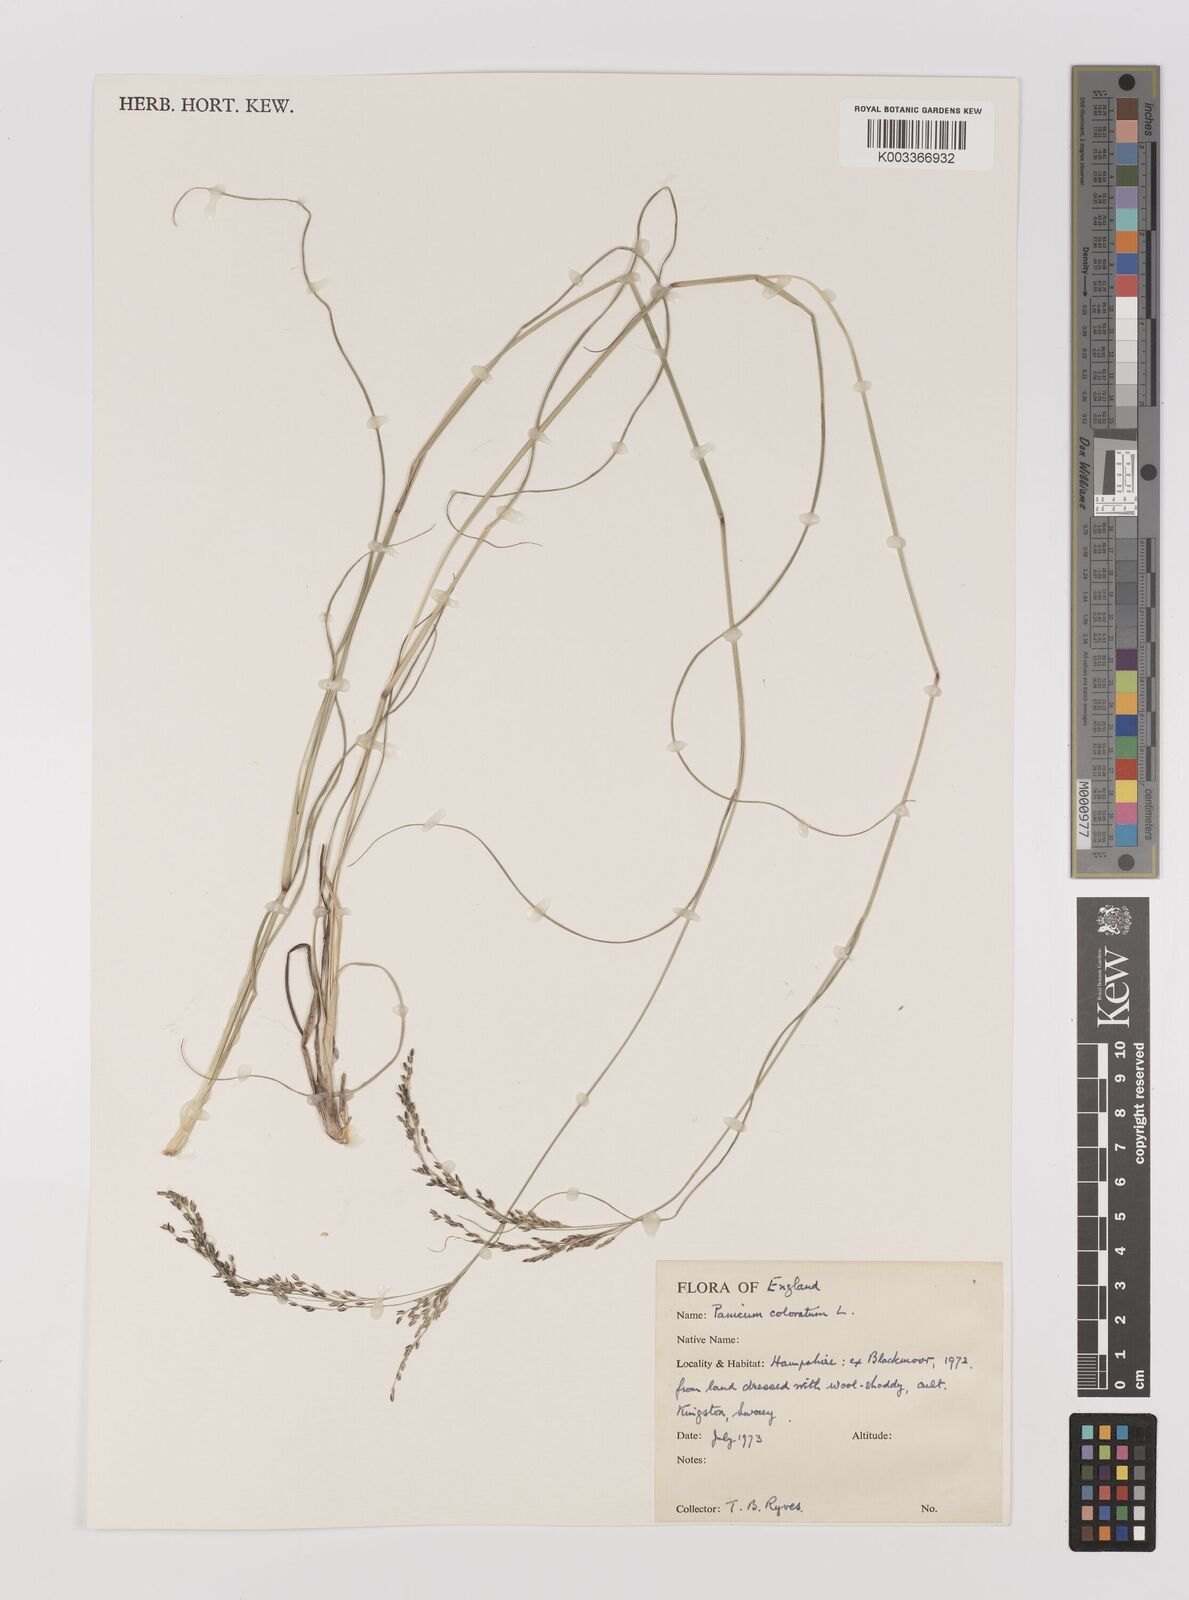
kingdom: Plantae
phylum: Tracheophyta
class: Liliopsida
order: Poales
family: Poaceae
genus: Panicum
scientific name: Panicum coloratum
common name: Kleingrass
